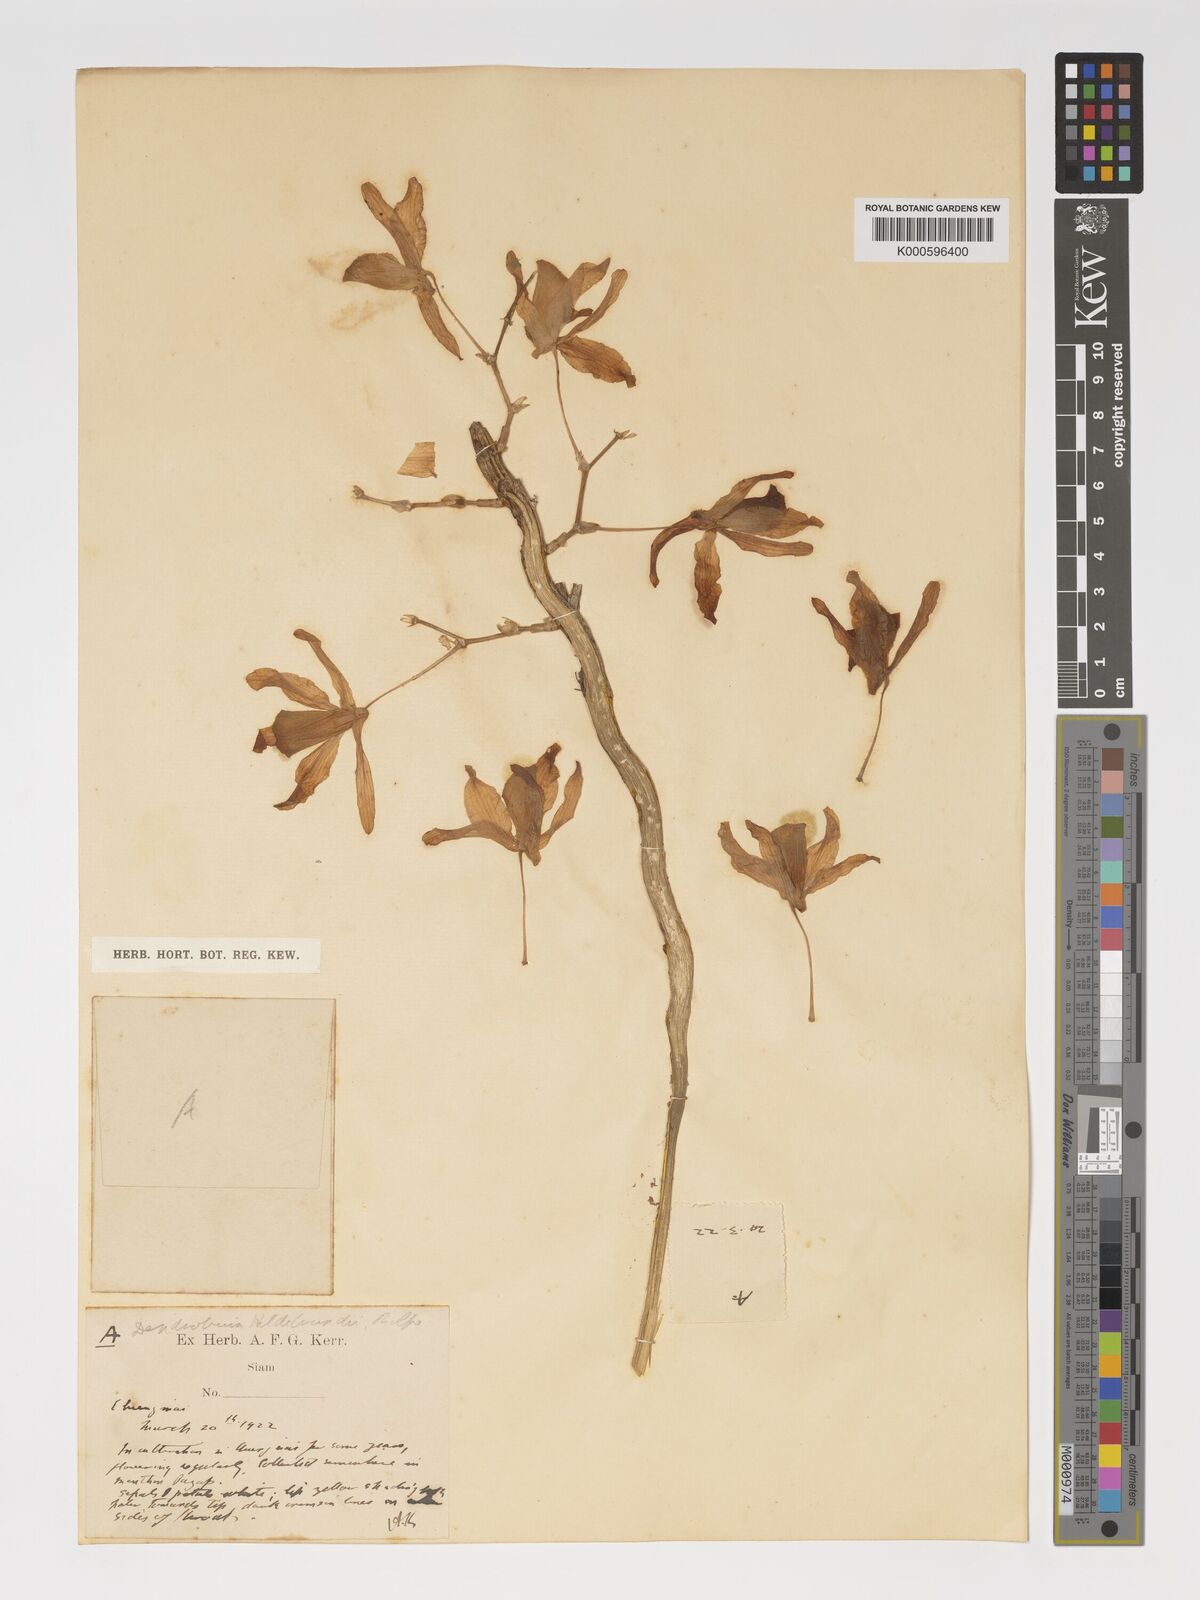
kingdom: Plantae
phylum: Tracheophyta
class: Liliopsida
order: Asparagales
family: Orchidaceae
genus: Dendrobium
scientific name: Dendrobium signatum
